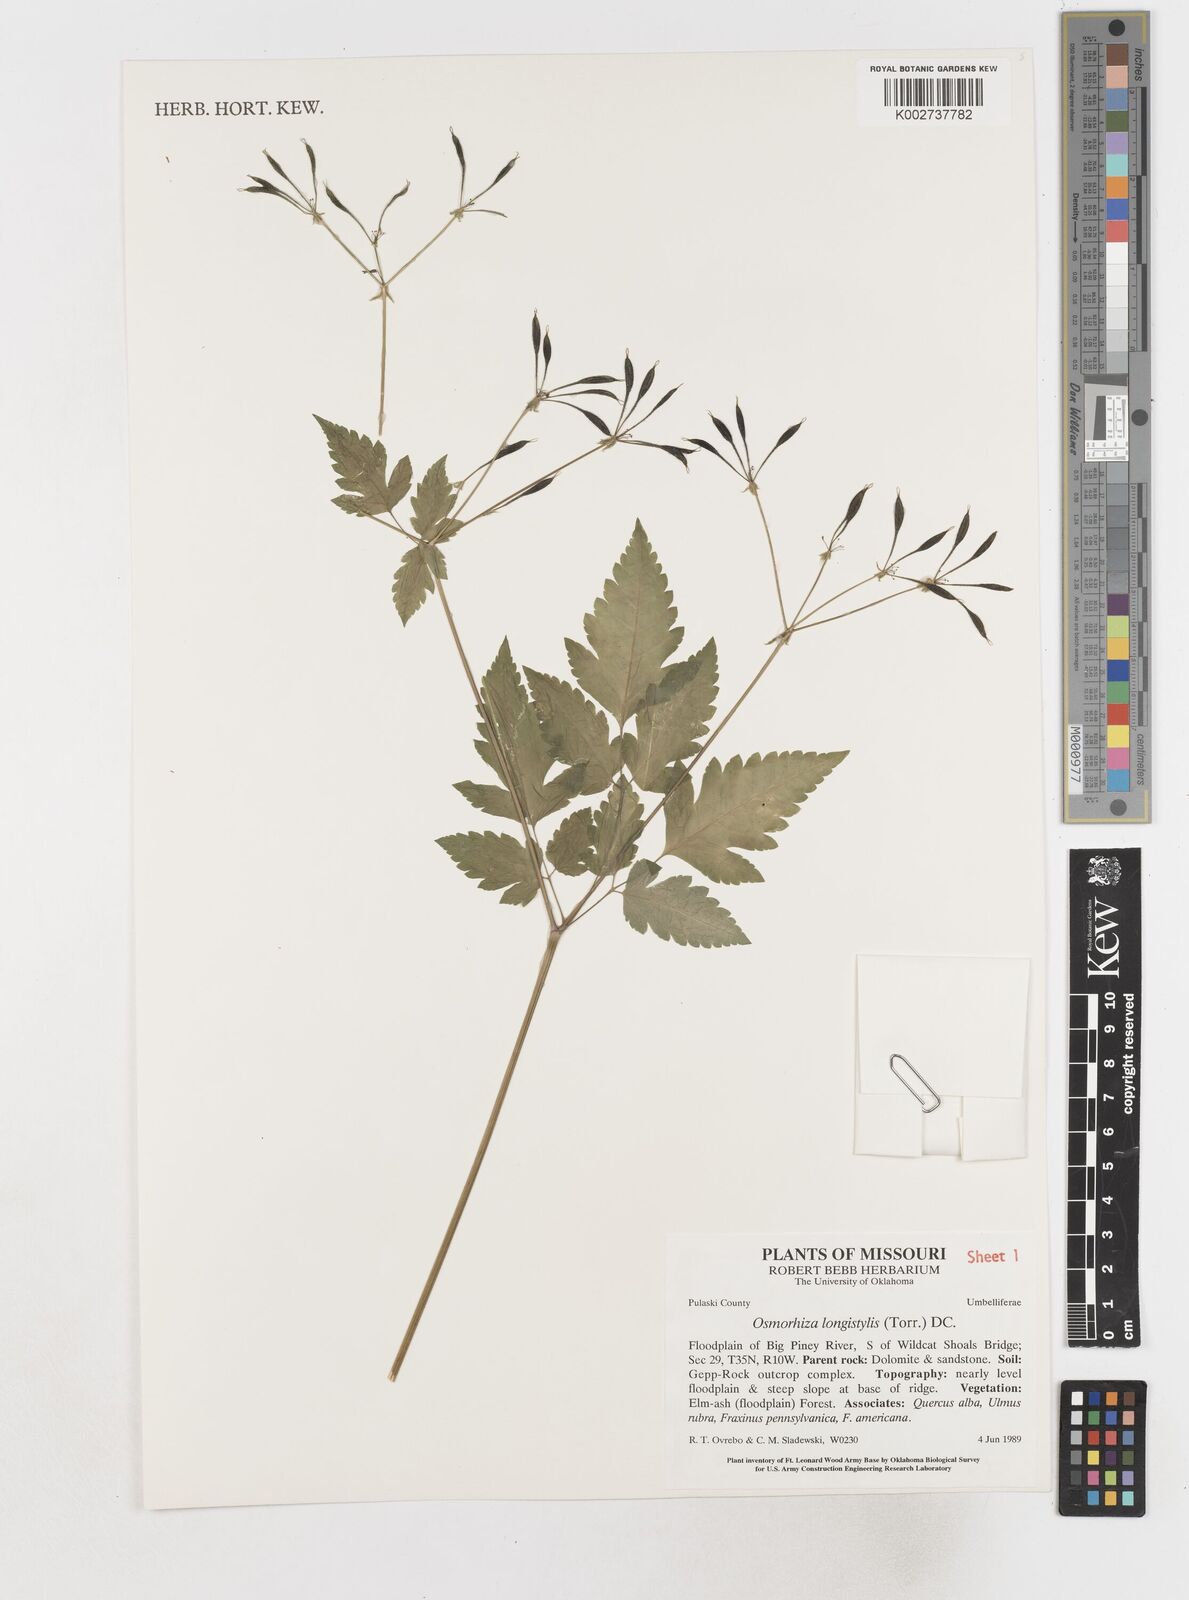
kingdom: Plantae
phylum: Tracheophyta
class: Magnoliopsida
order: Apiales
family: Apiaceae
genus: Osmorhiza
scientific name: Osmorhiza longistylis
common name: Smooth sweet cicely
